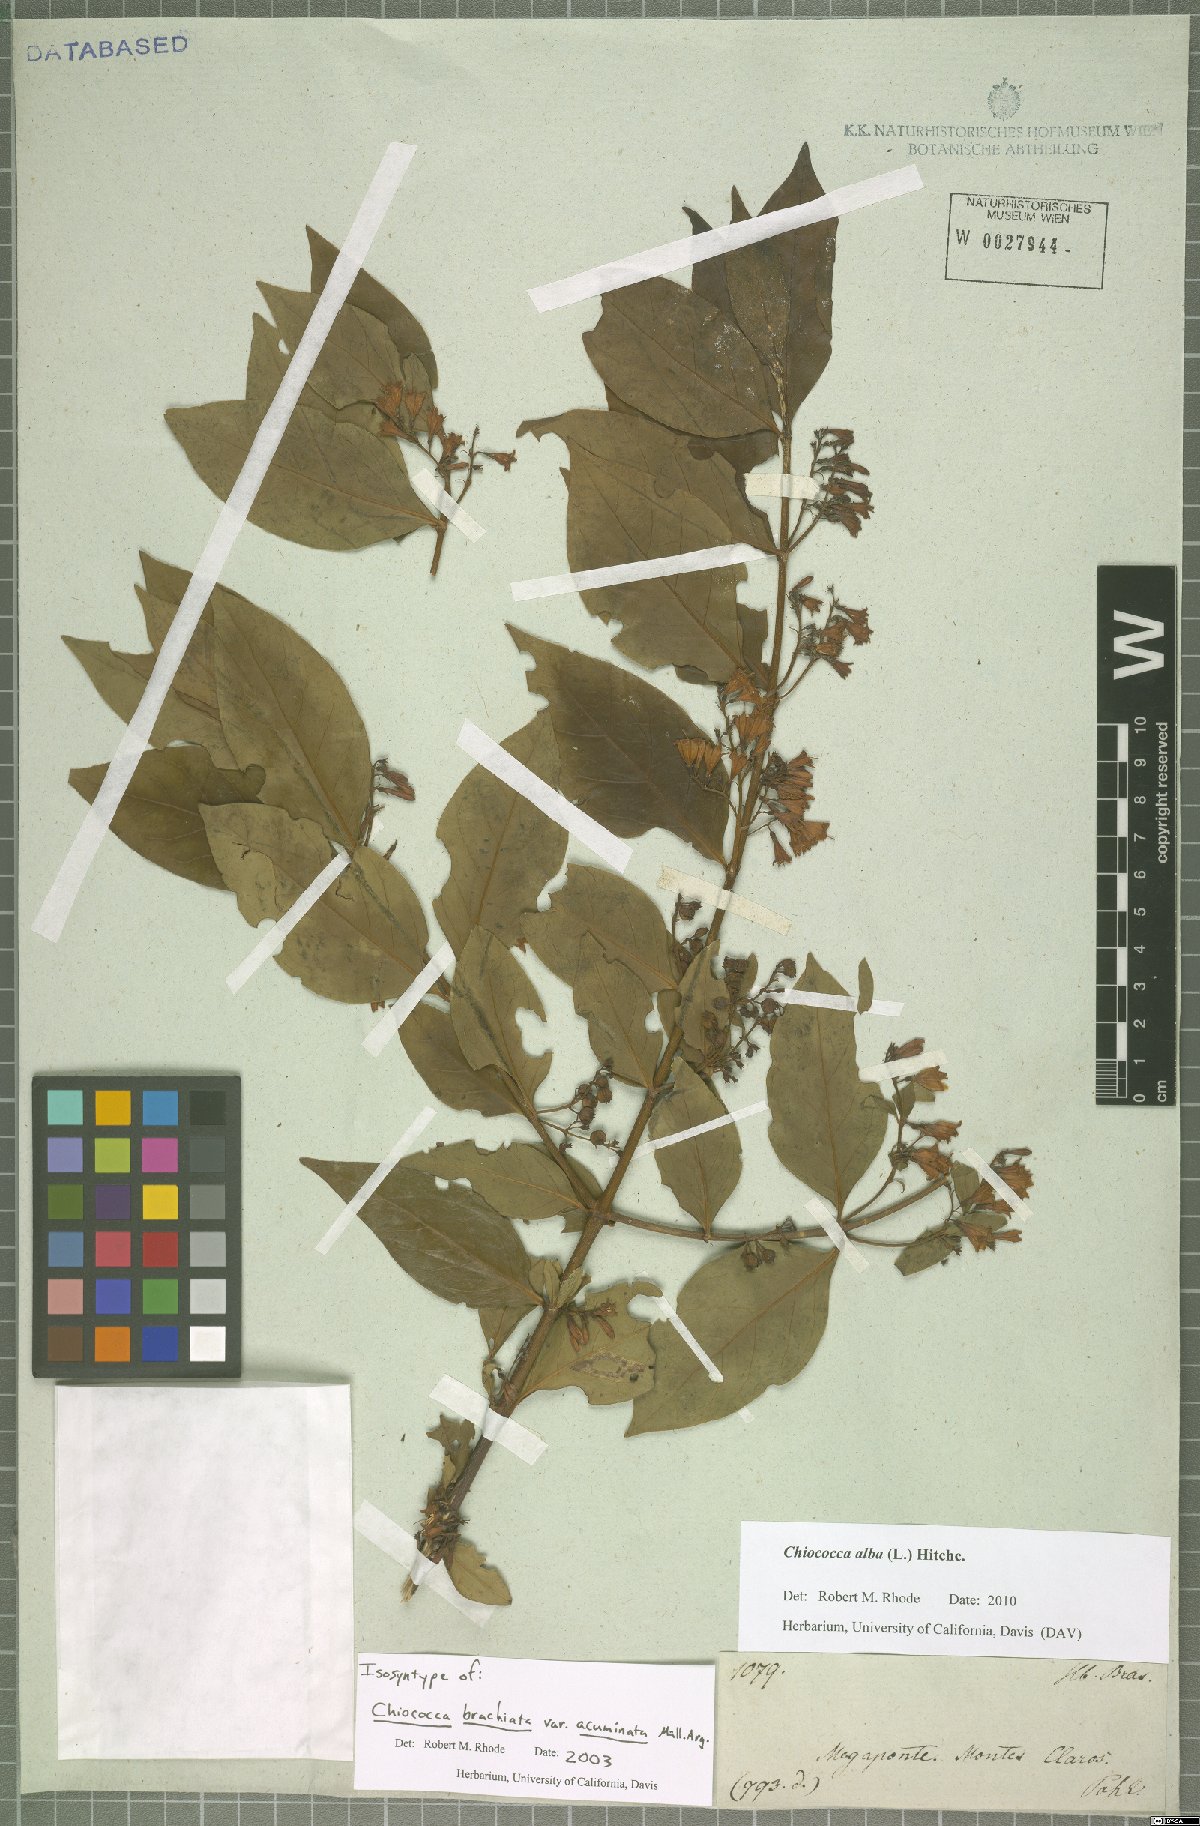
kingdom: Plantae
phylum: Tracheophyta
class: Magnoliopsida
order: Gentianales
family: Rubiaceae
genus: Chiococca
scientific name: Chiococca alba
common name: Snowberry
